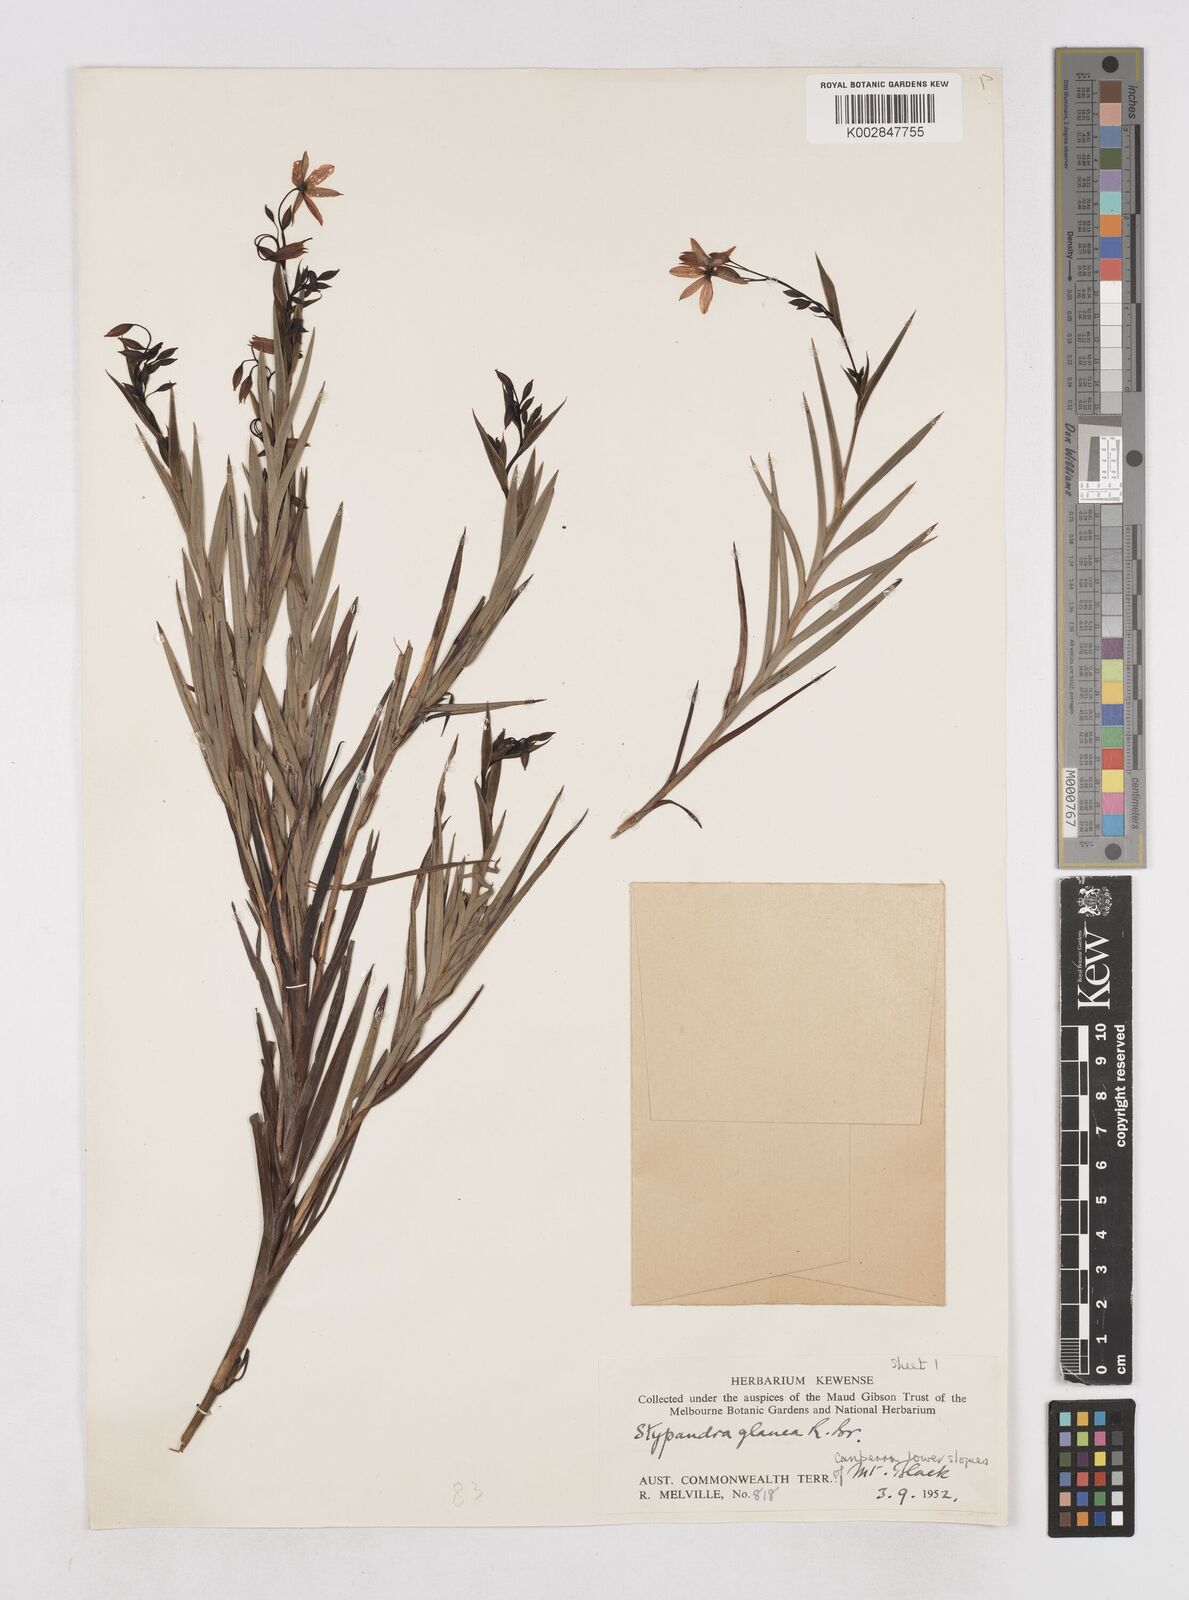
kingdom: Plantae
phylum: Tracheophyta
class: Liliopsida
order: Asparagales
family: Asphodelaceae
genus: Stypandra
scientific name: Stypandra glauca
